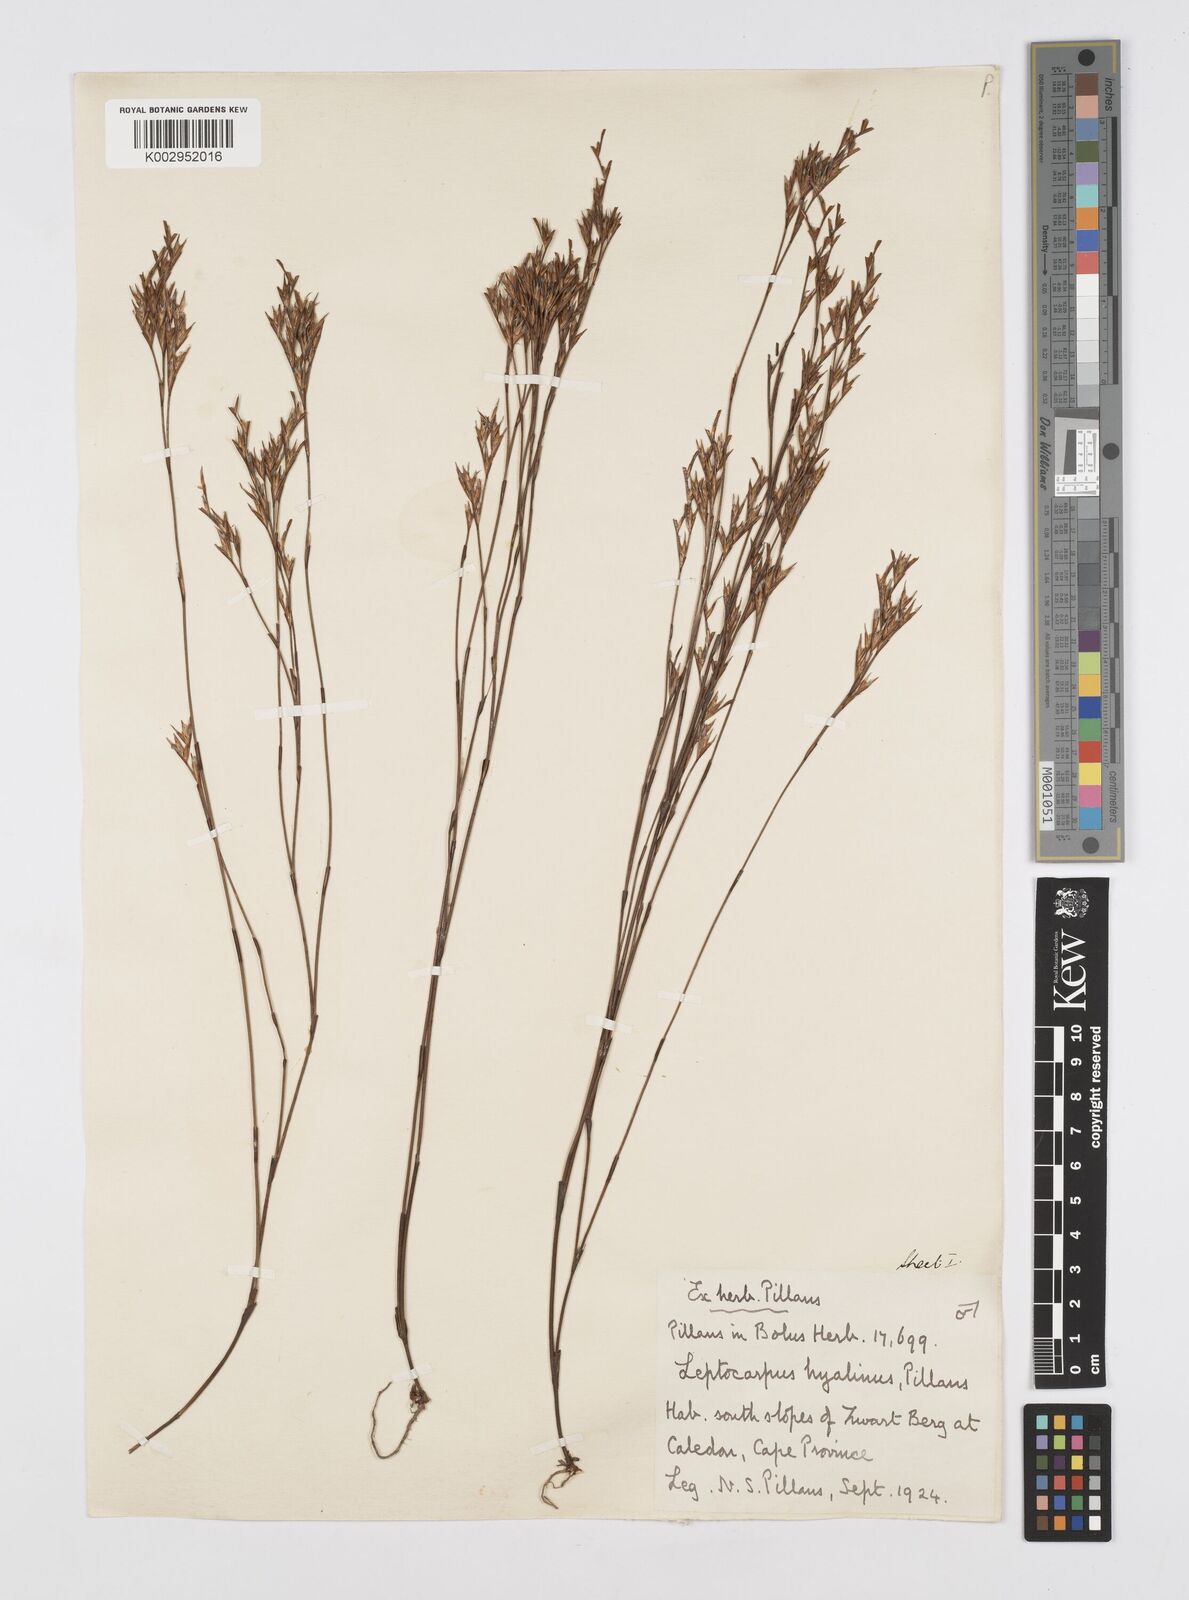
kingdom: Plantae
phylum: Tracheophyta
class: Liliopsida
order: Poales
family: Restionaceae
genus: Restio
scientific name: Restio hyalinus
